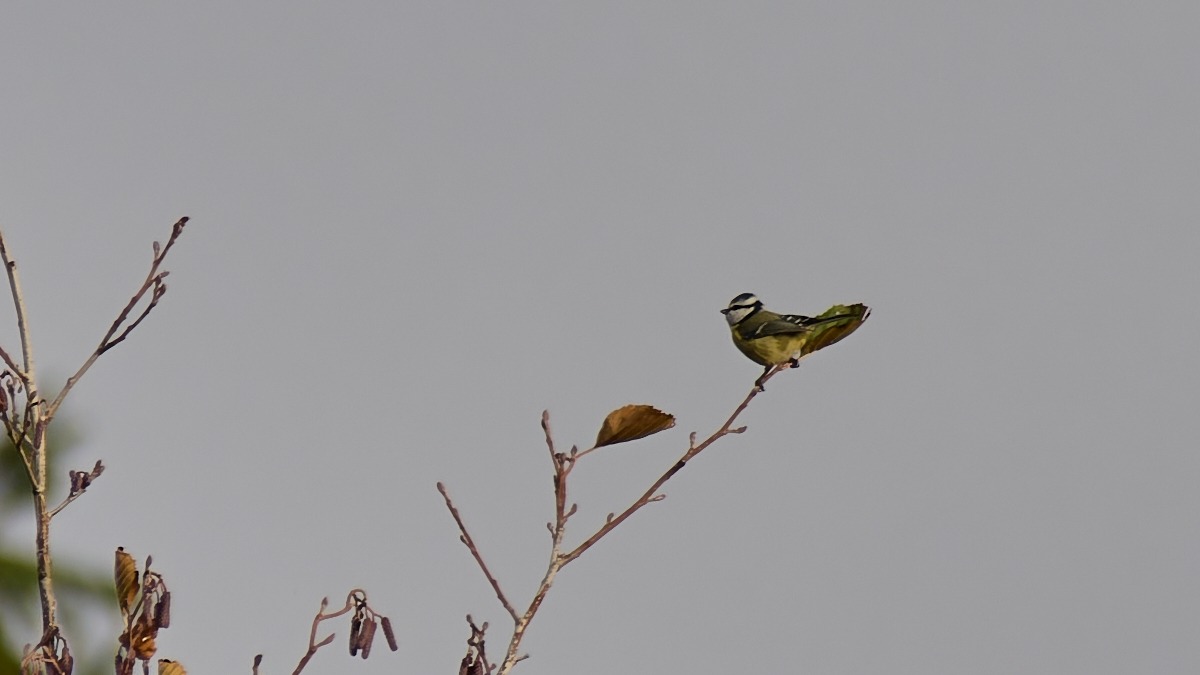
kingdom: Animalia
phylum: Chordata
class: Aves
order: Passeriformes
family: Paridae
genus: Cyanistes
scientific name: Cyanistes caeruleus
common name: Blåmejse
